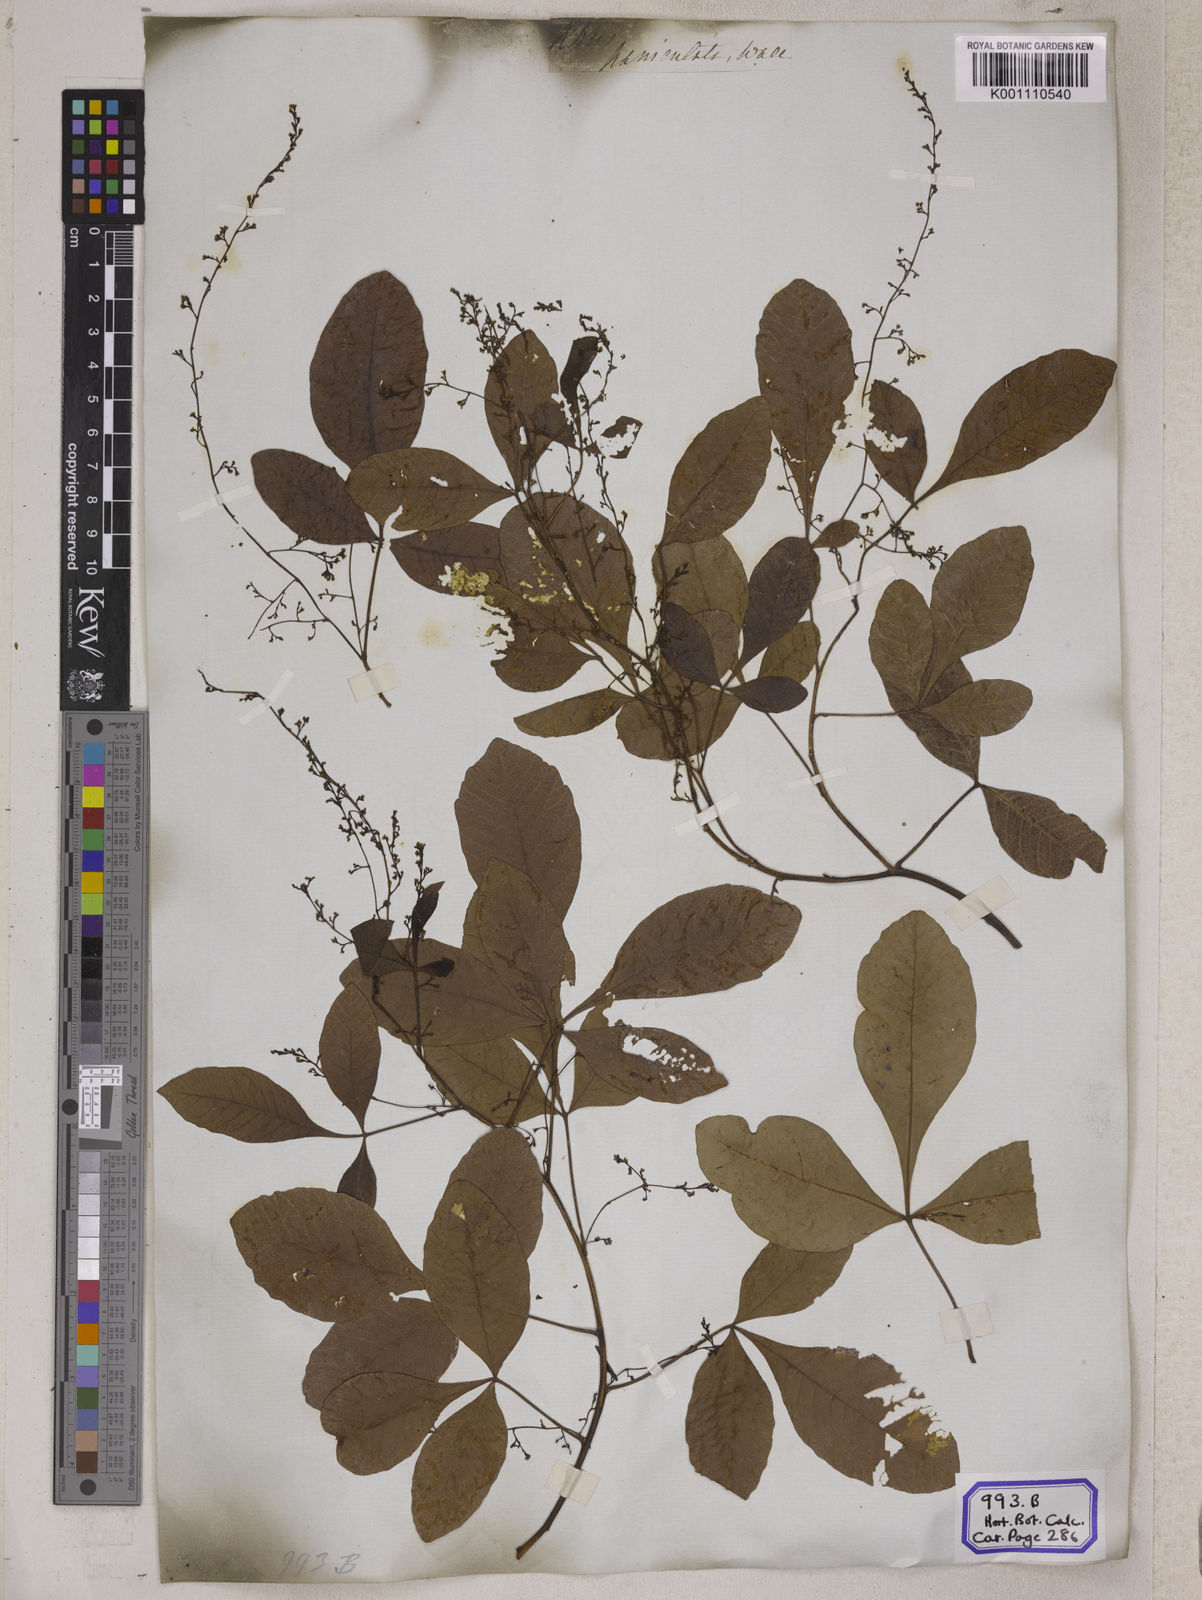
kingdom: Plantae
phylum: Tracheophyta
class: Magnoliopsida
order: Sapindales
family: Anacardiaceae
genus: Rhus
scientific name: Rhus
